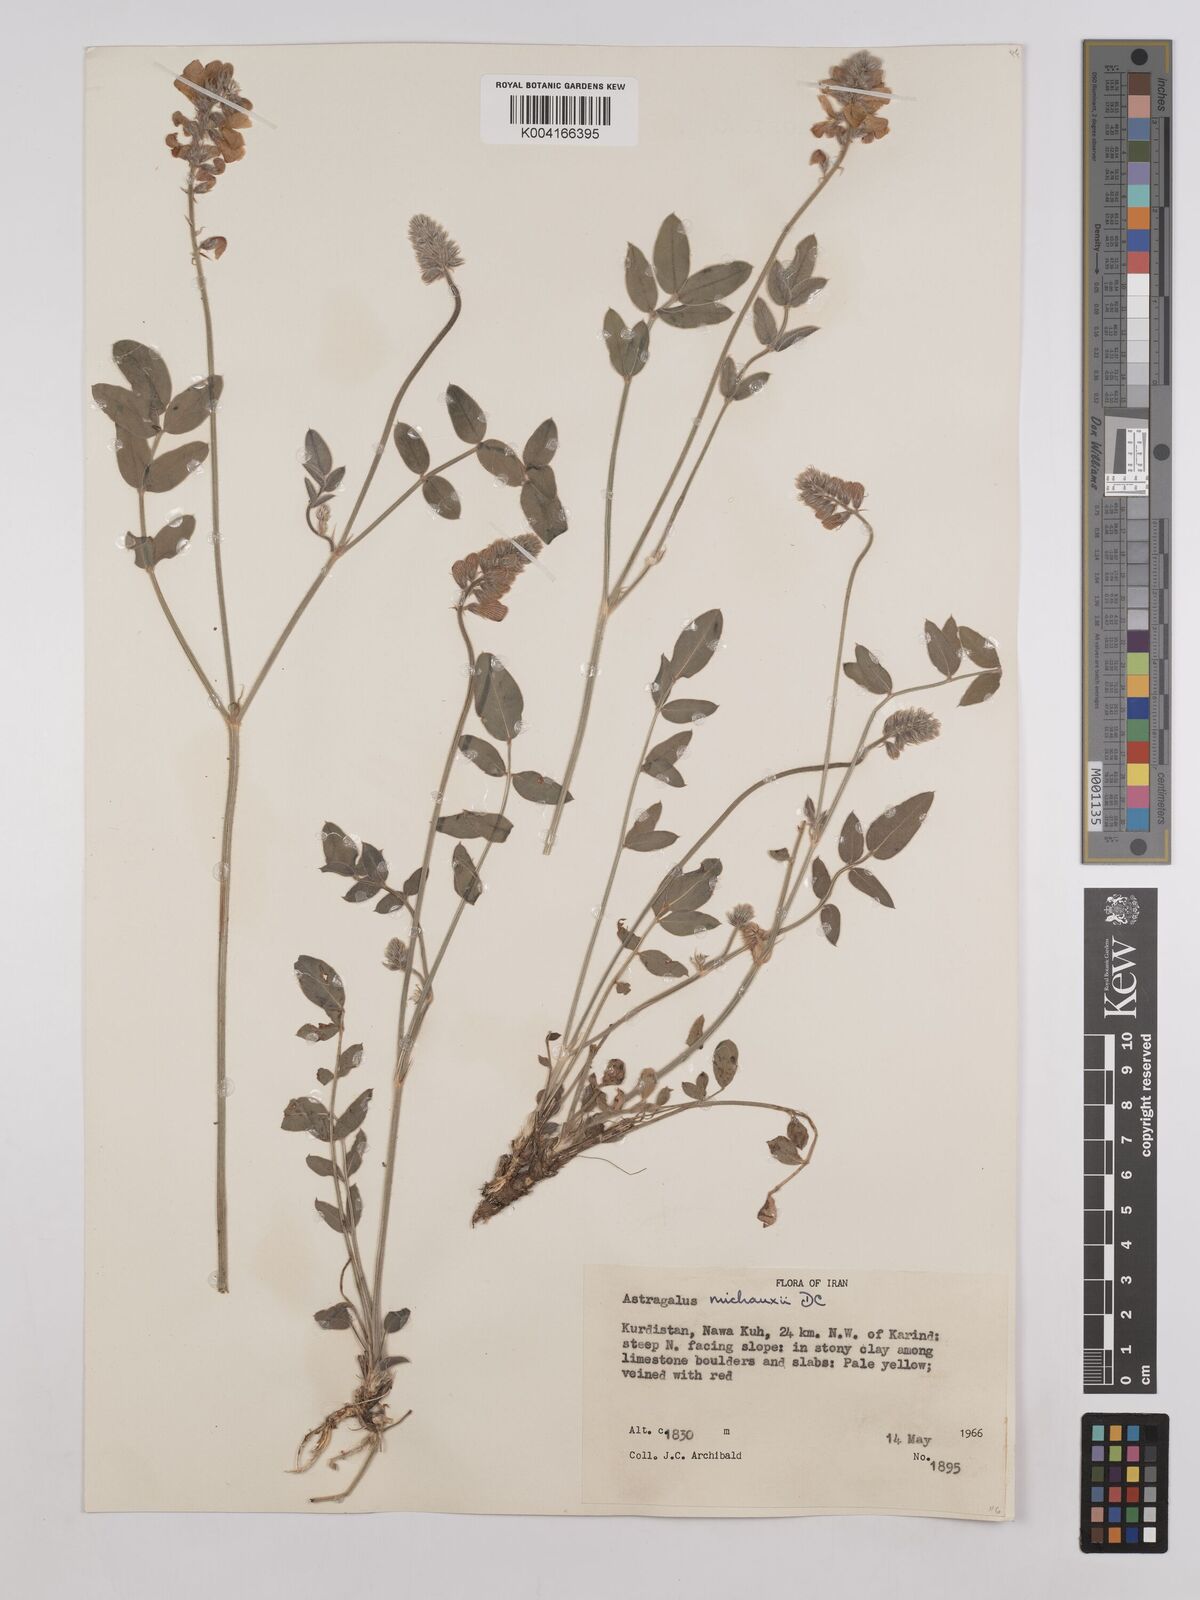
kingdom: Plantae
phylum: Tracheophyta
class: Magnoliopsida
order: Fabales
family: Fabaceae
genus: Onobrychis
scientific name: Onobrychis michauxii
